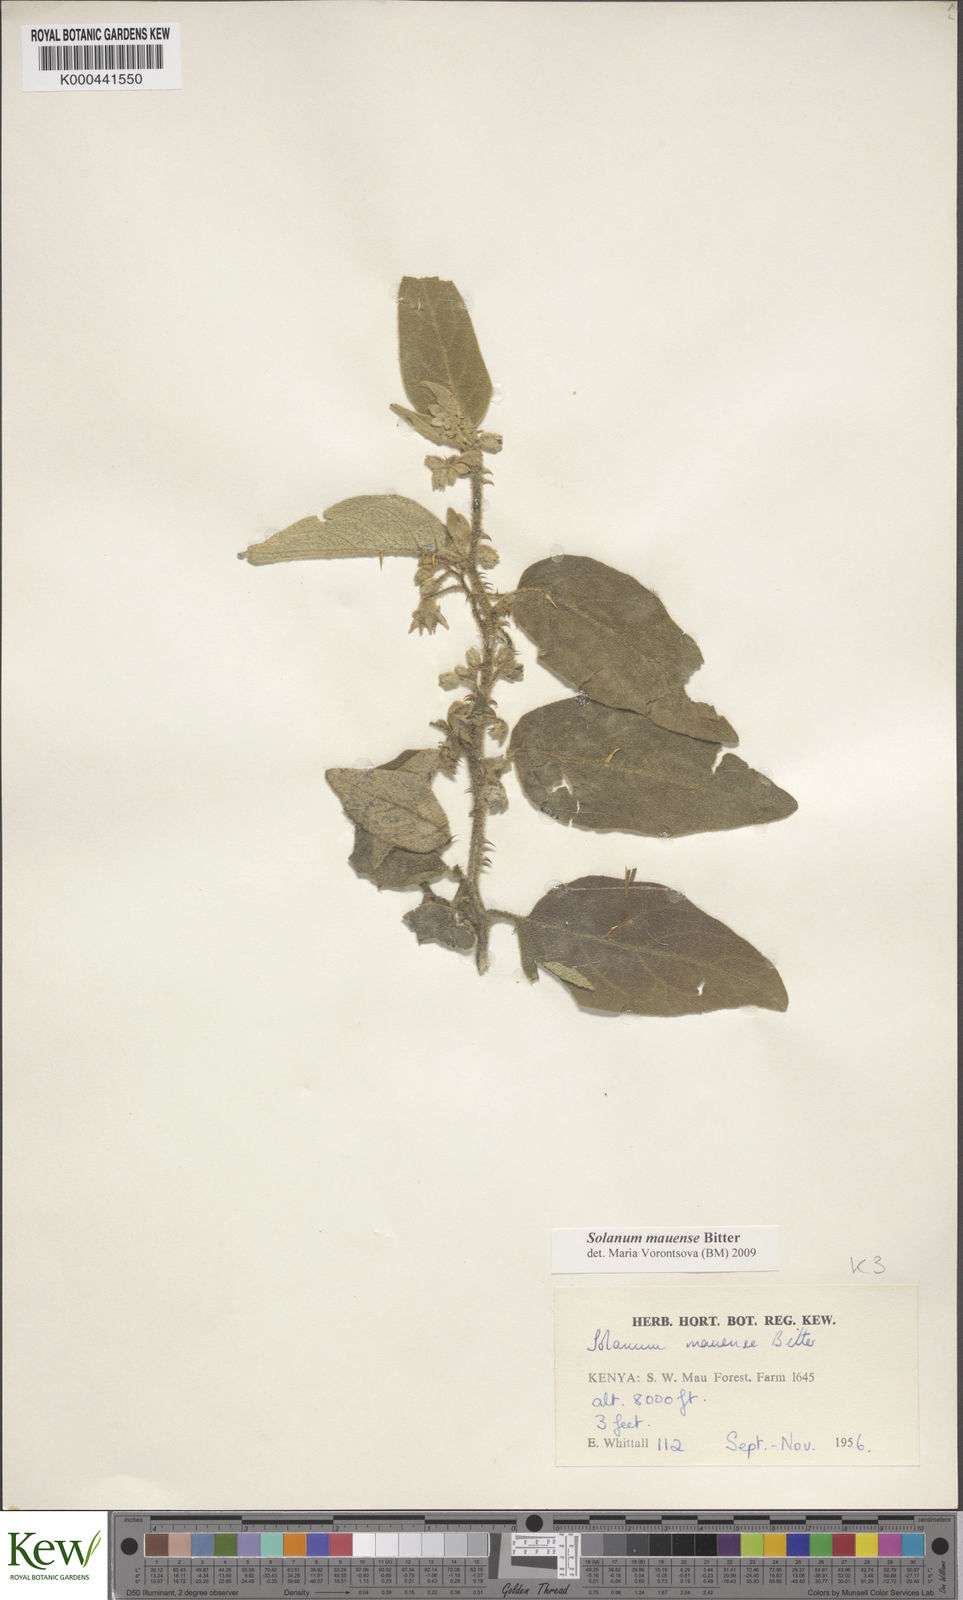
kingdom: Plantae
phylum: Tracheophyta
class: Magnoliopsida
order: Solanales
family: Solanaceae
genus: Solanum
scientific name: Solanum mauense
